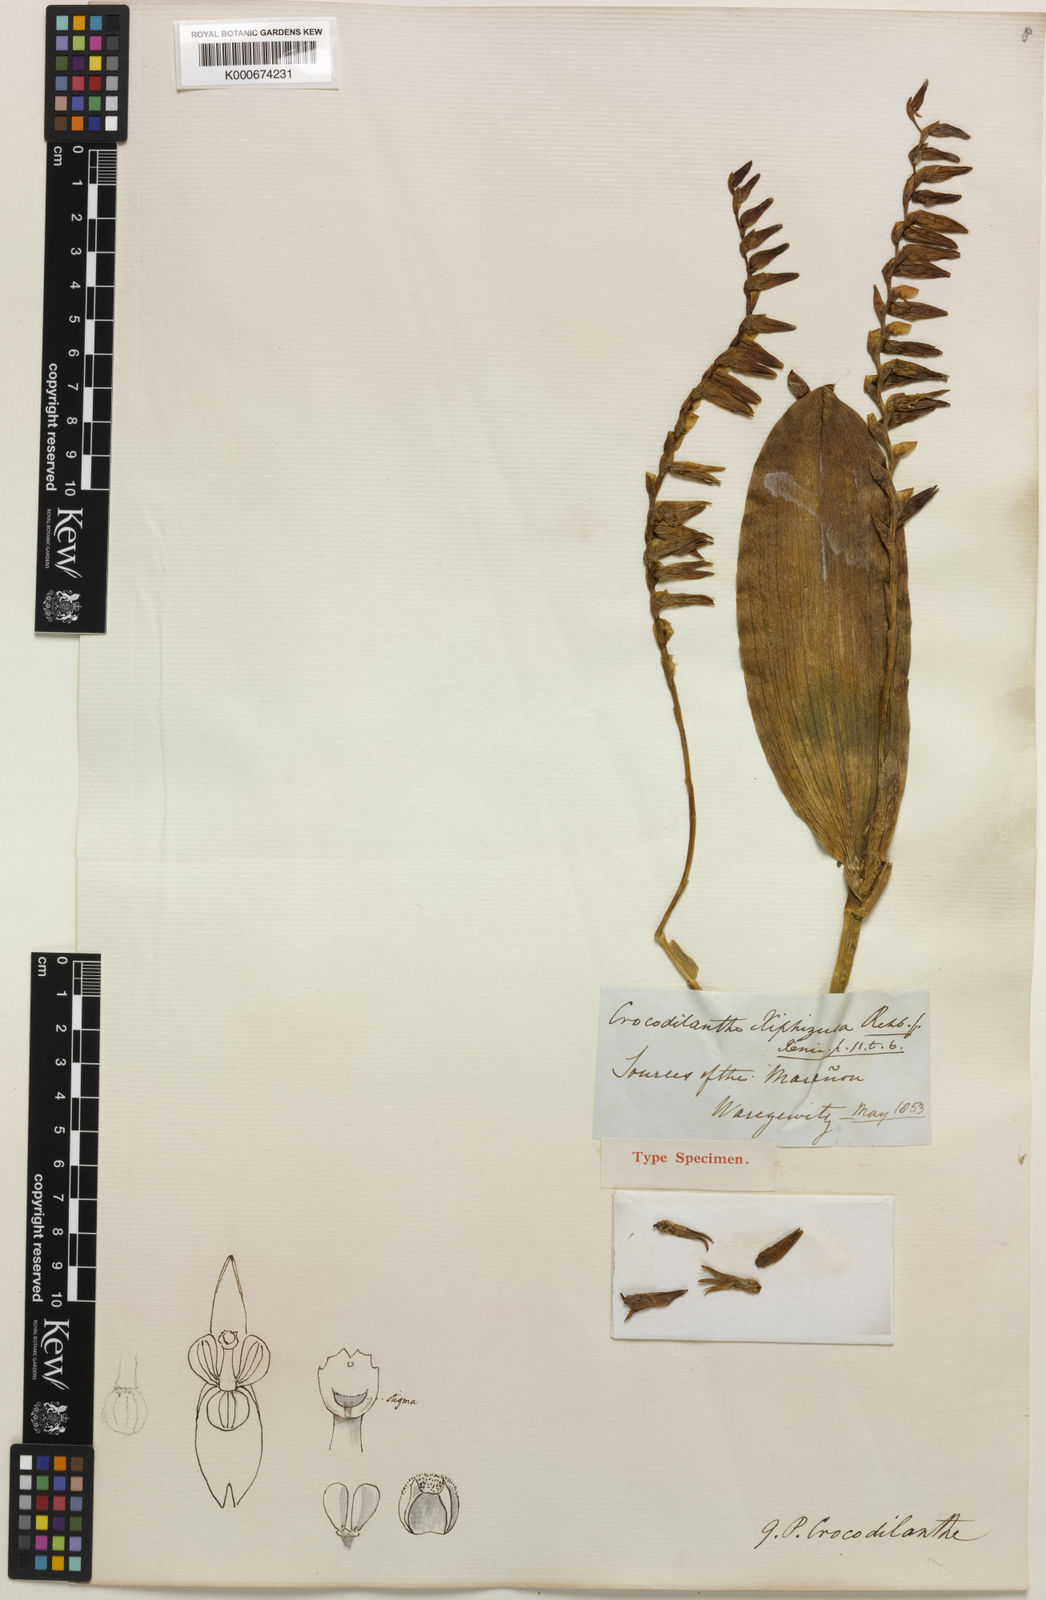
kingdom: Plantae
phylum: Tracheophyta
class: Liliopsida
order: Asparagales
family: Orchidaceae
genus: Pleurothallis
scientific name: Pleurothallis
